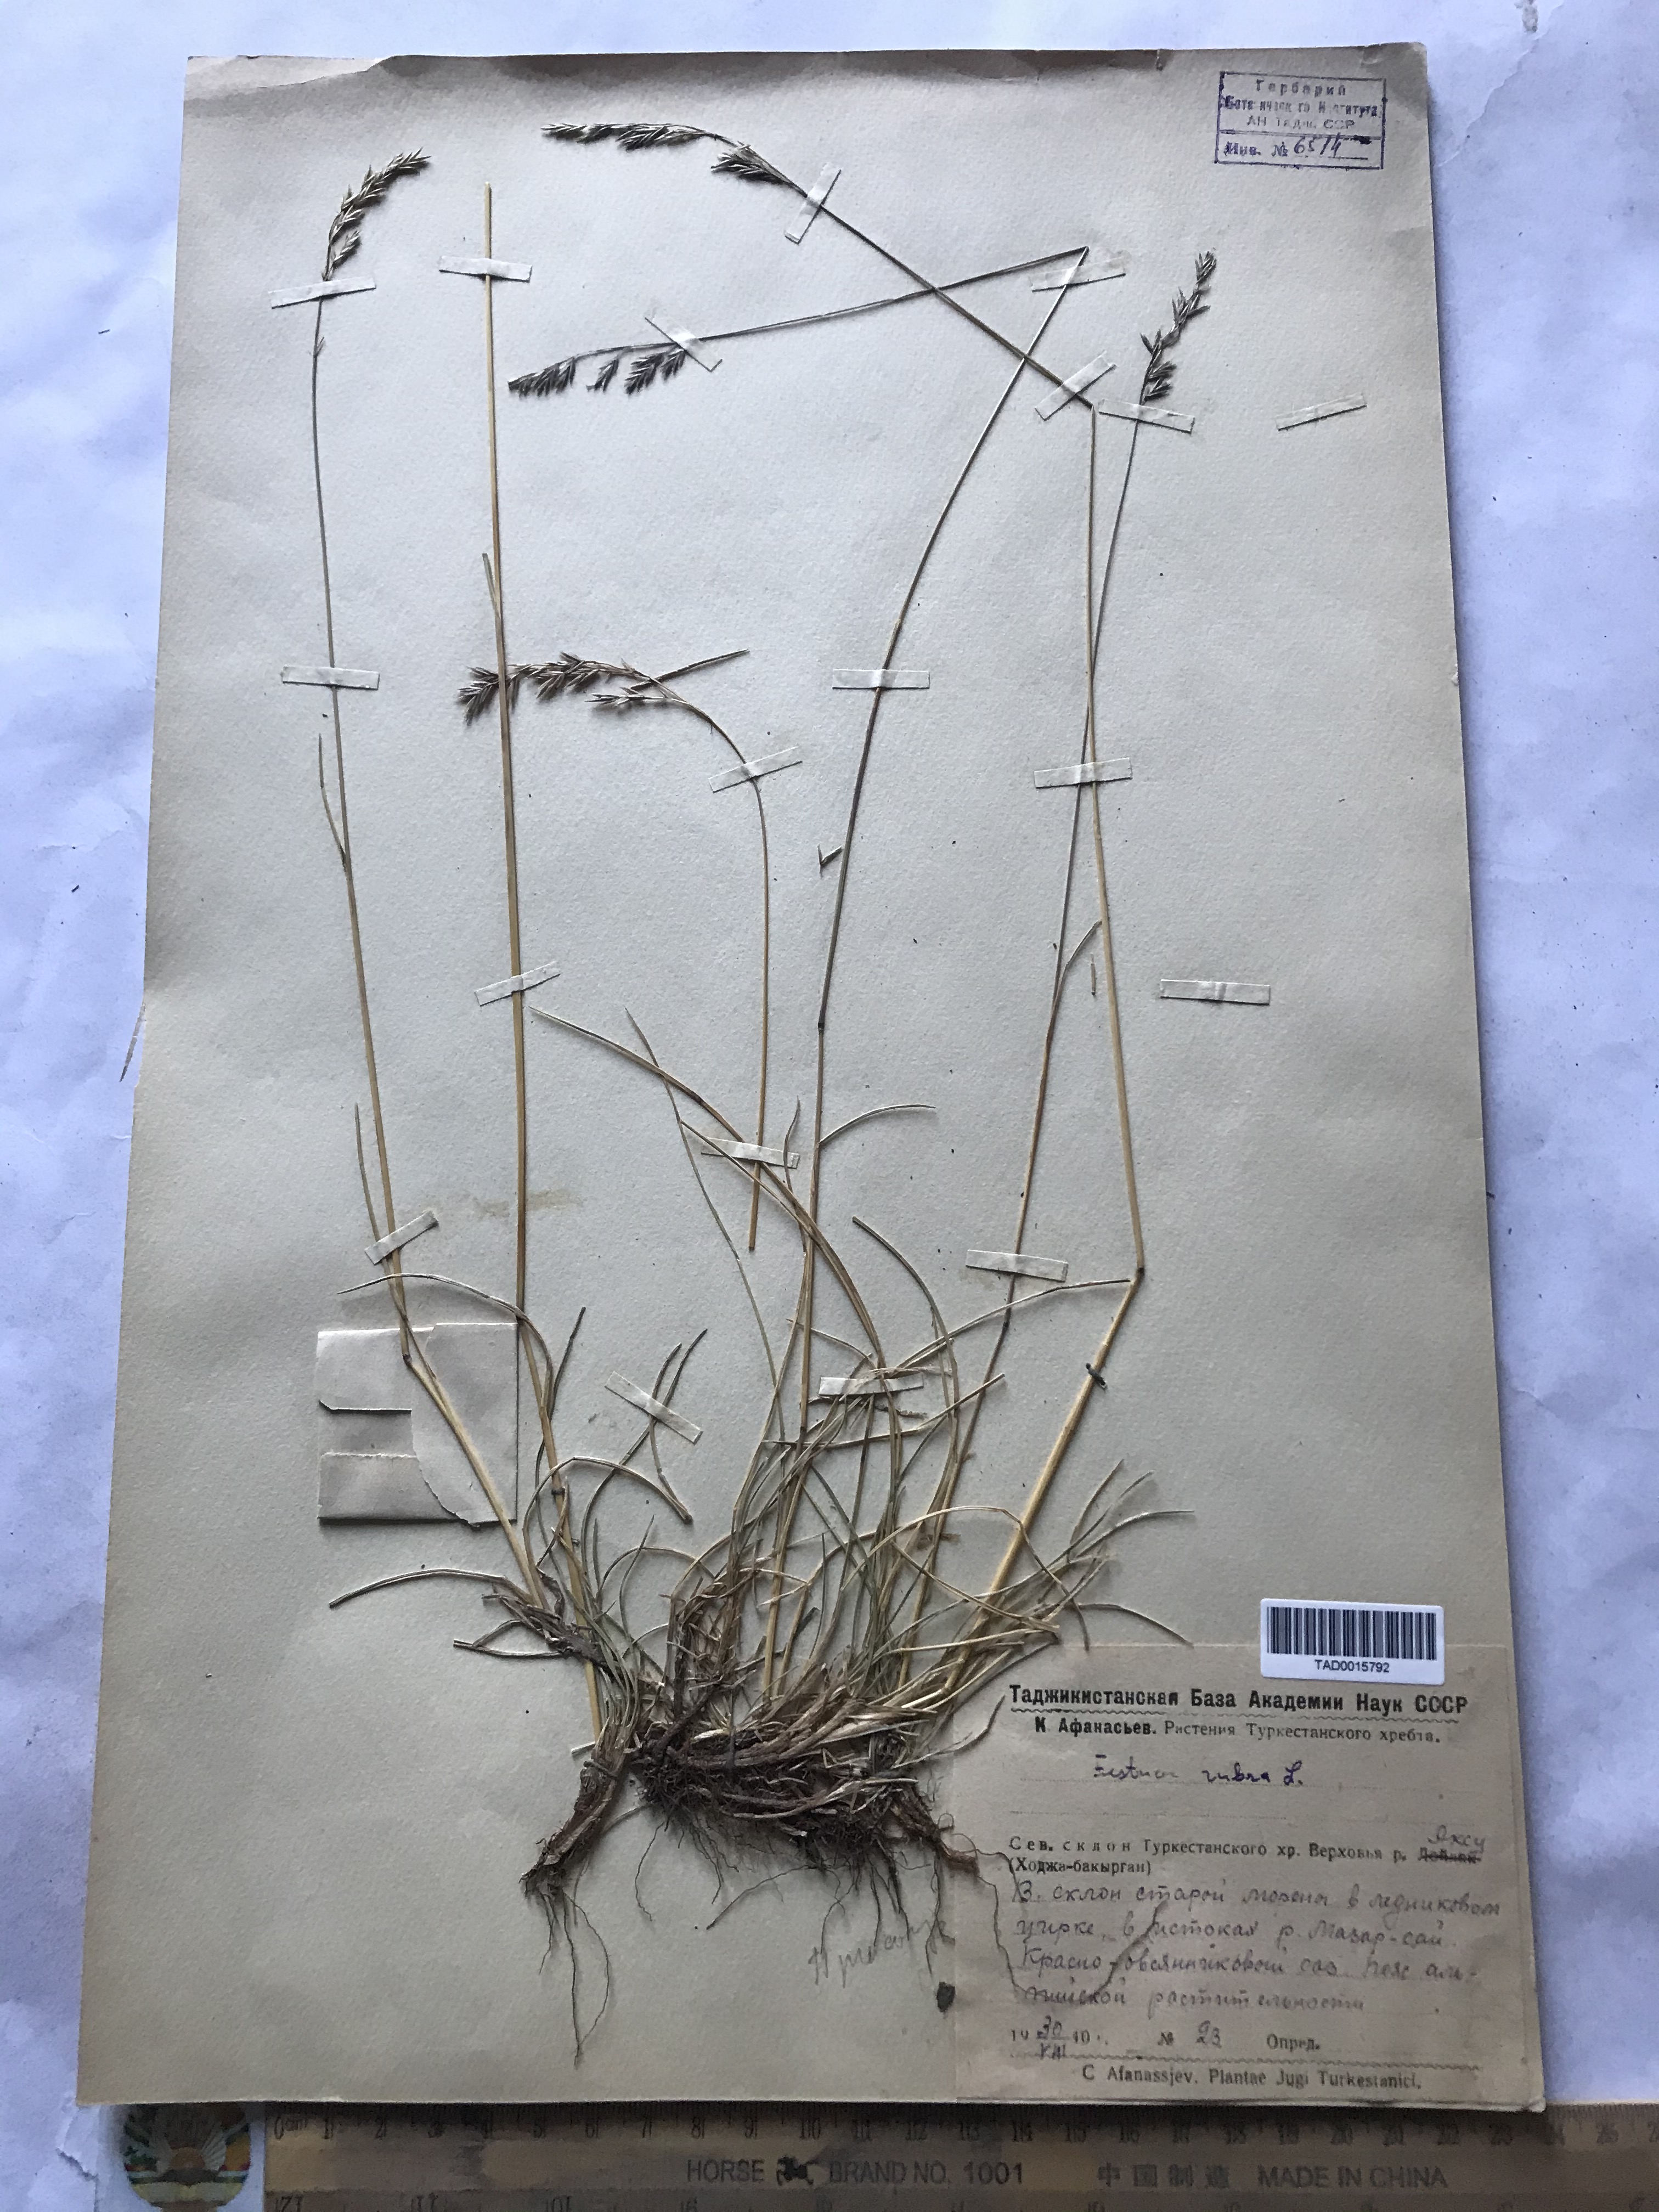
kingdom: Plantae
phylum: Tracheophyta
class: Liliopsida
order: Poales
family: Poaceae
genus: Festuca
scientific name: Festuca rubra
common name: Red fescue
